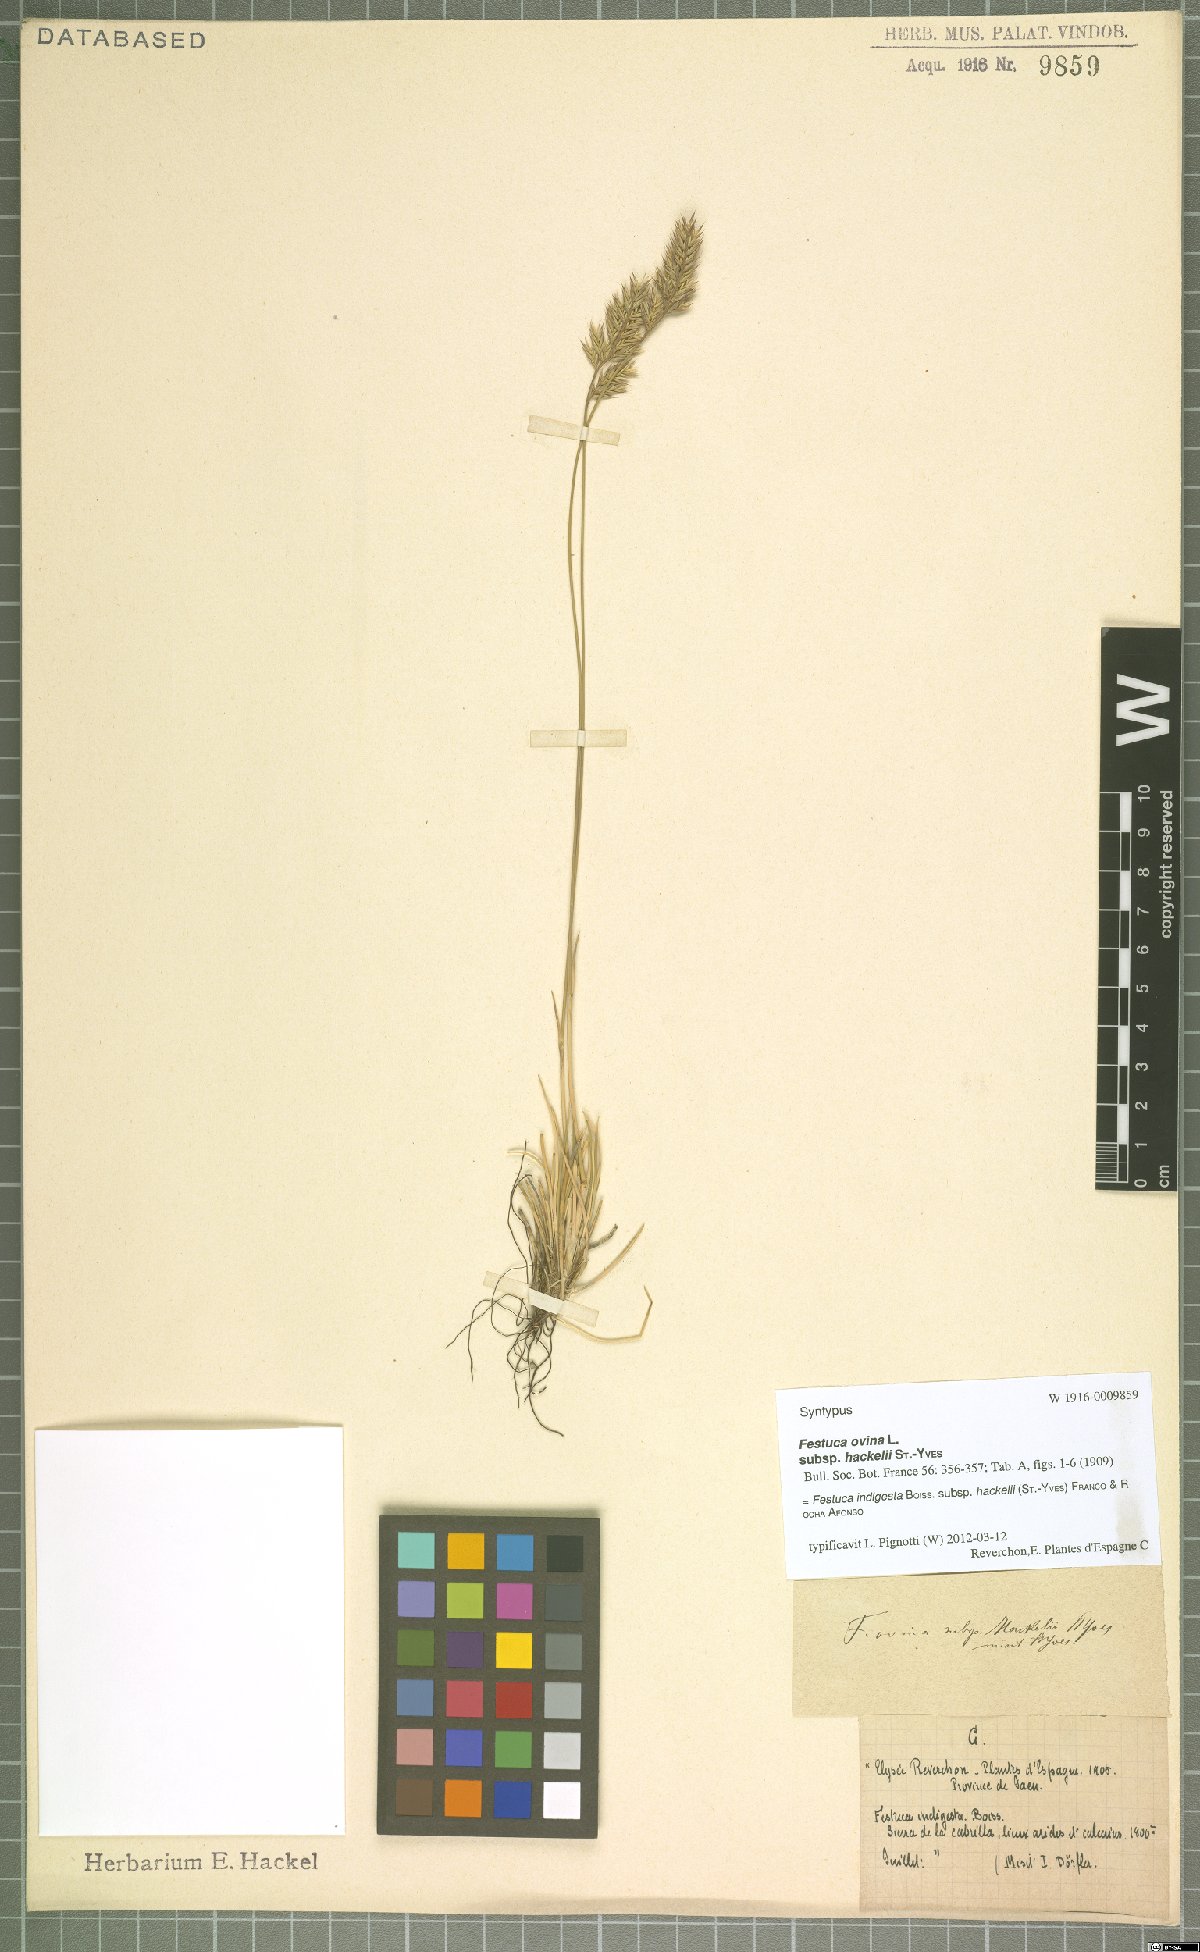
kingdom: Plantae
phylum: Tracheophyta
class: Liliopsida
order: Poales
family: Poaceae
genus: Festuca
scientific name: Festuca indigesta
